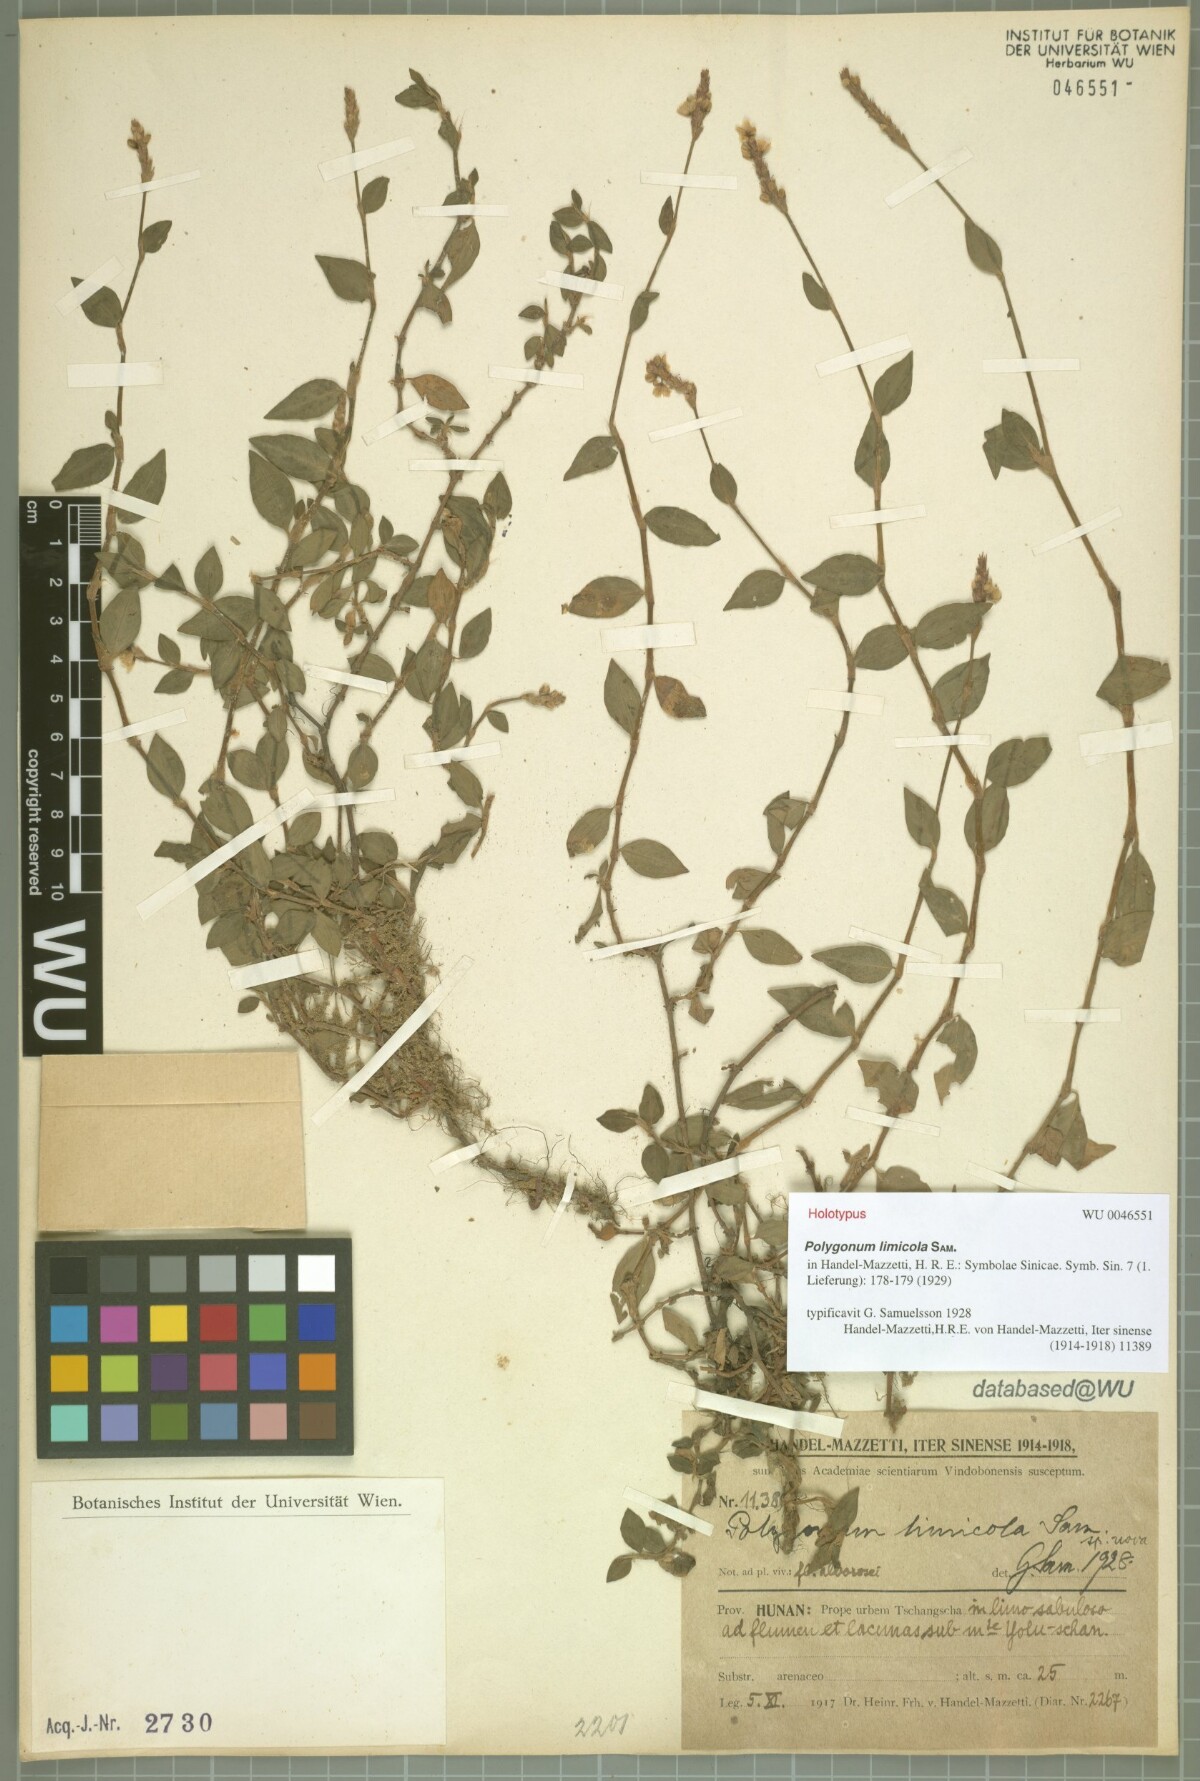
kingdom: Plantae
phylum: Tracheophyta
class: Magnoliopsida
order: Caryophyllales
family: Polygonaceae
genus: Persicaria
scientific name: Persicaria limicola
